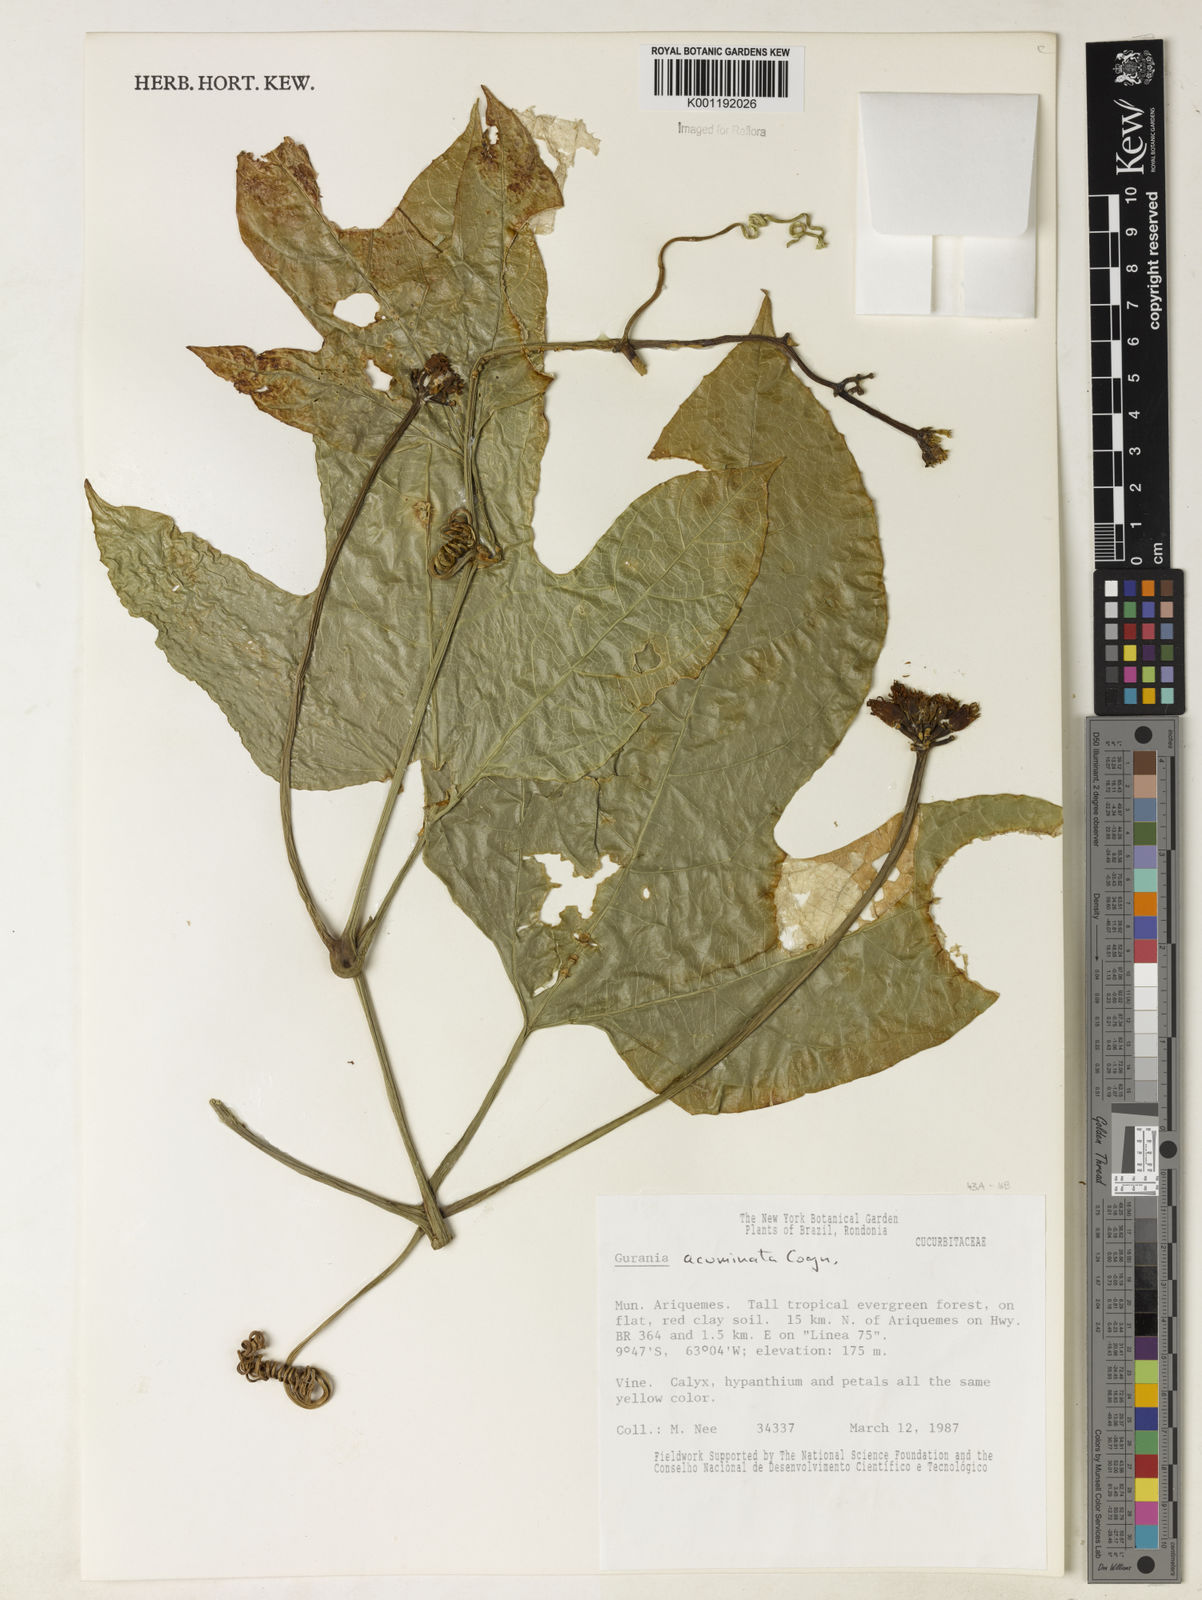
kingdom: Plantae
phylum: Tracheophyta
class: Magnoliopsida
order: Cucurbitales
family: Cucurbitaceae
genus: Gurania
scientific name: Gurania acuminata
